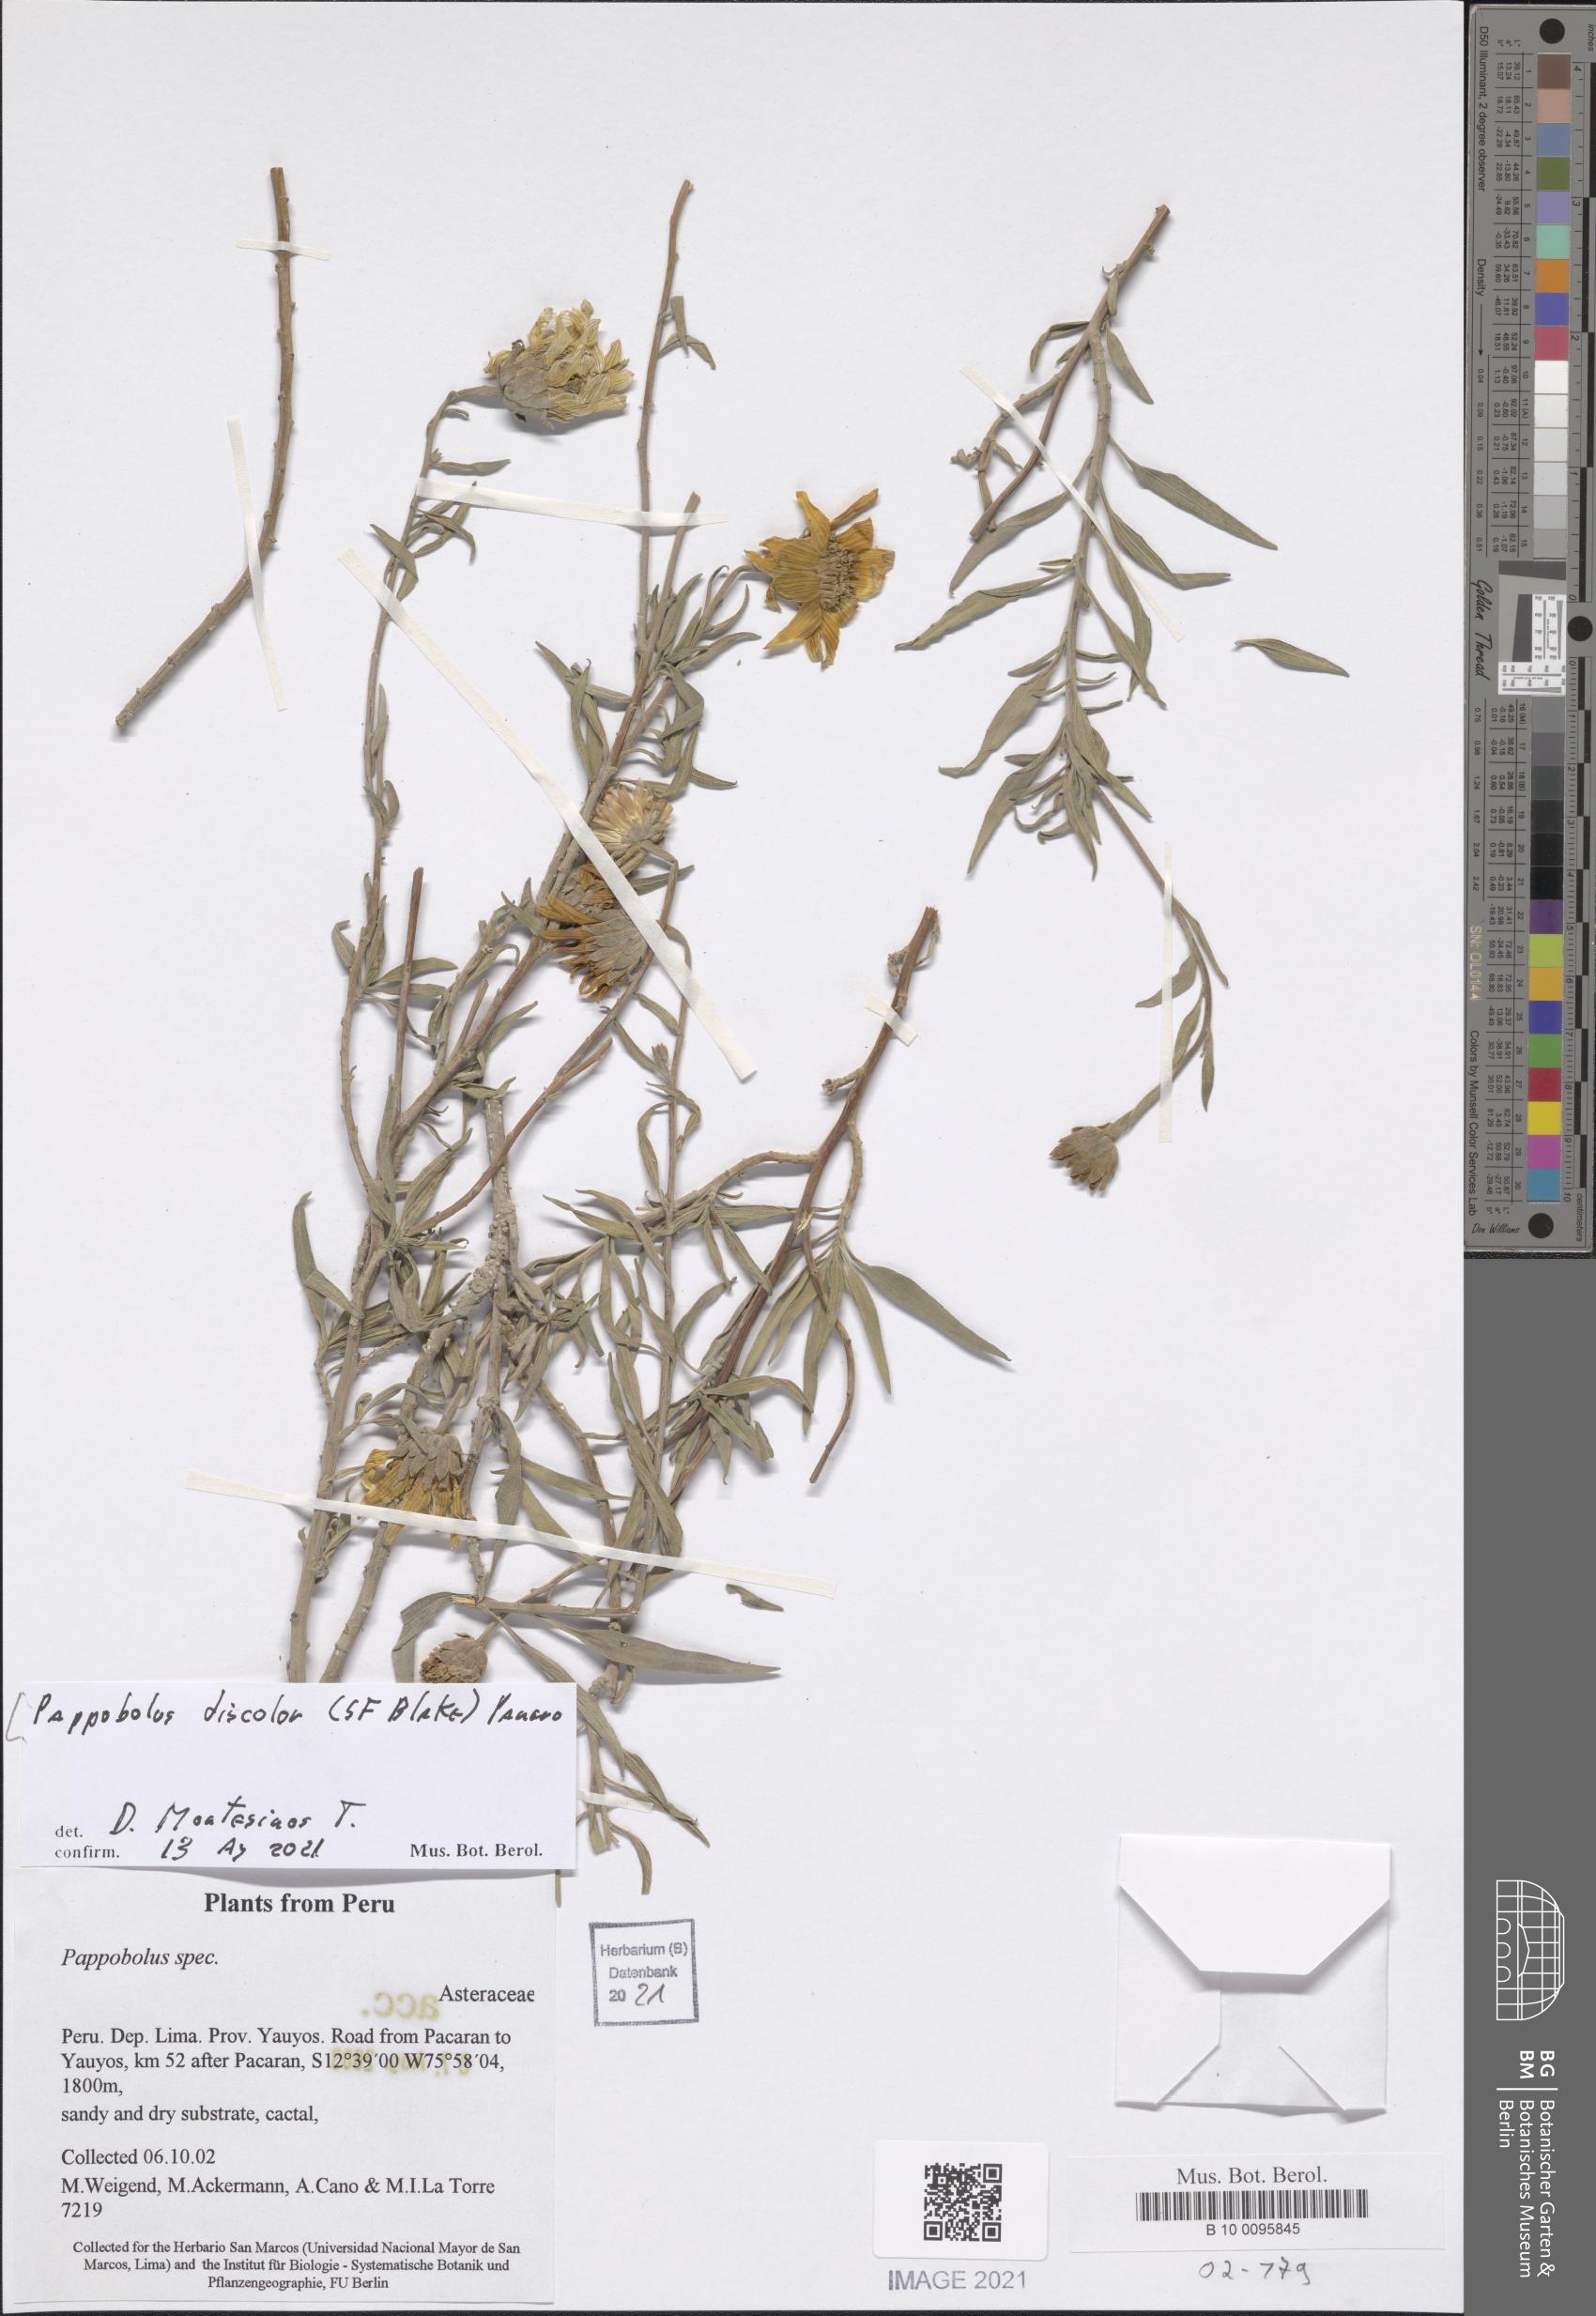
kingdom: Plantae
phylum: Tracheophyta
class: Magnoliopsida
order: Asterales
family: Asteraceae
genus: Pappobolus
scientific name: Pappobolus discolor
